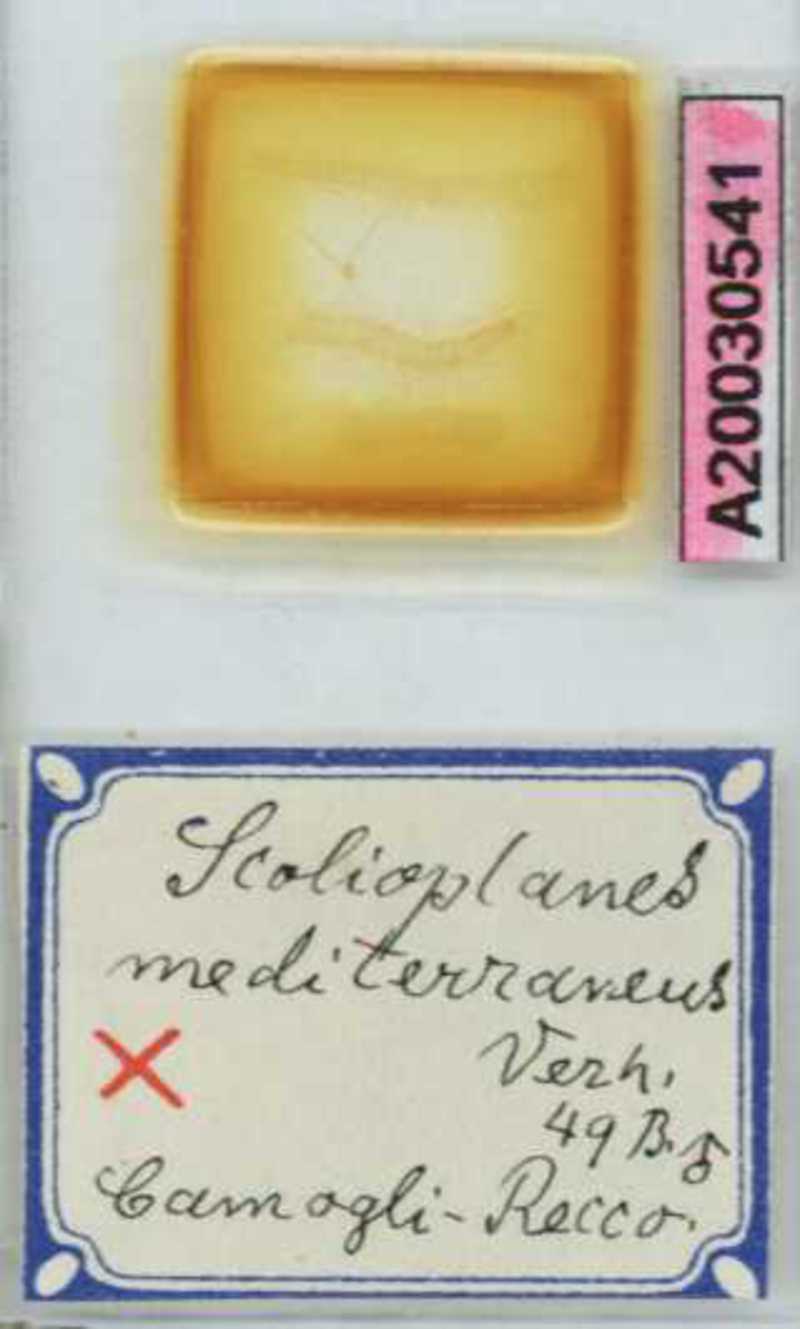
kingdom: Animalia
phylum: Arthropoda
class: Chilopoda
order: Geophilomorpha
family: Linotaeniidae
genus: Strigamia
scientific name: Strigamia crassipes
